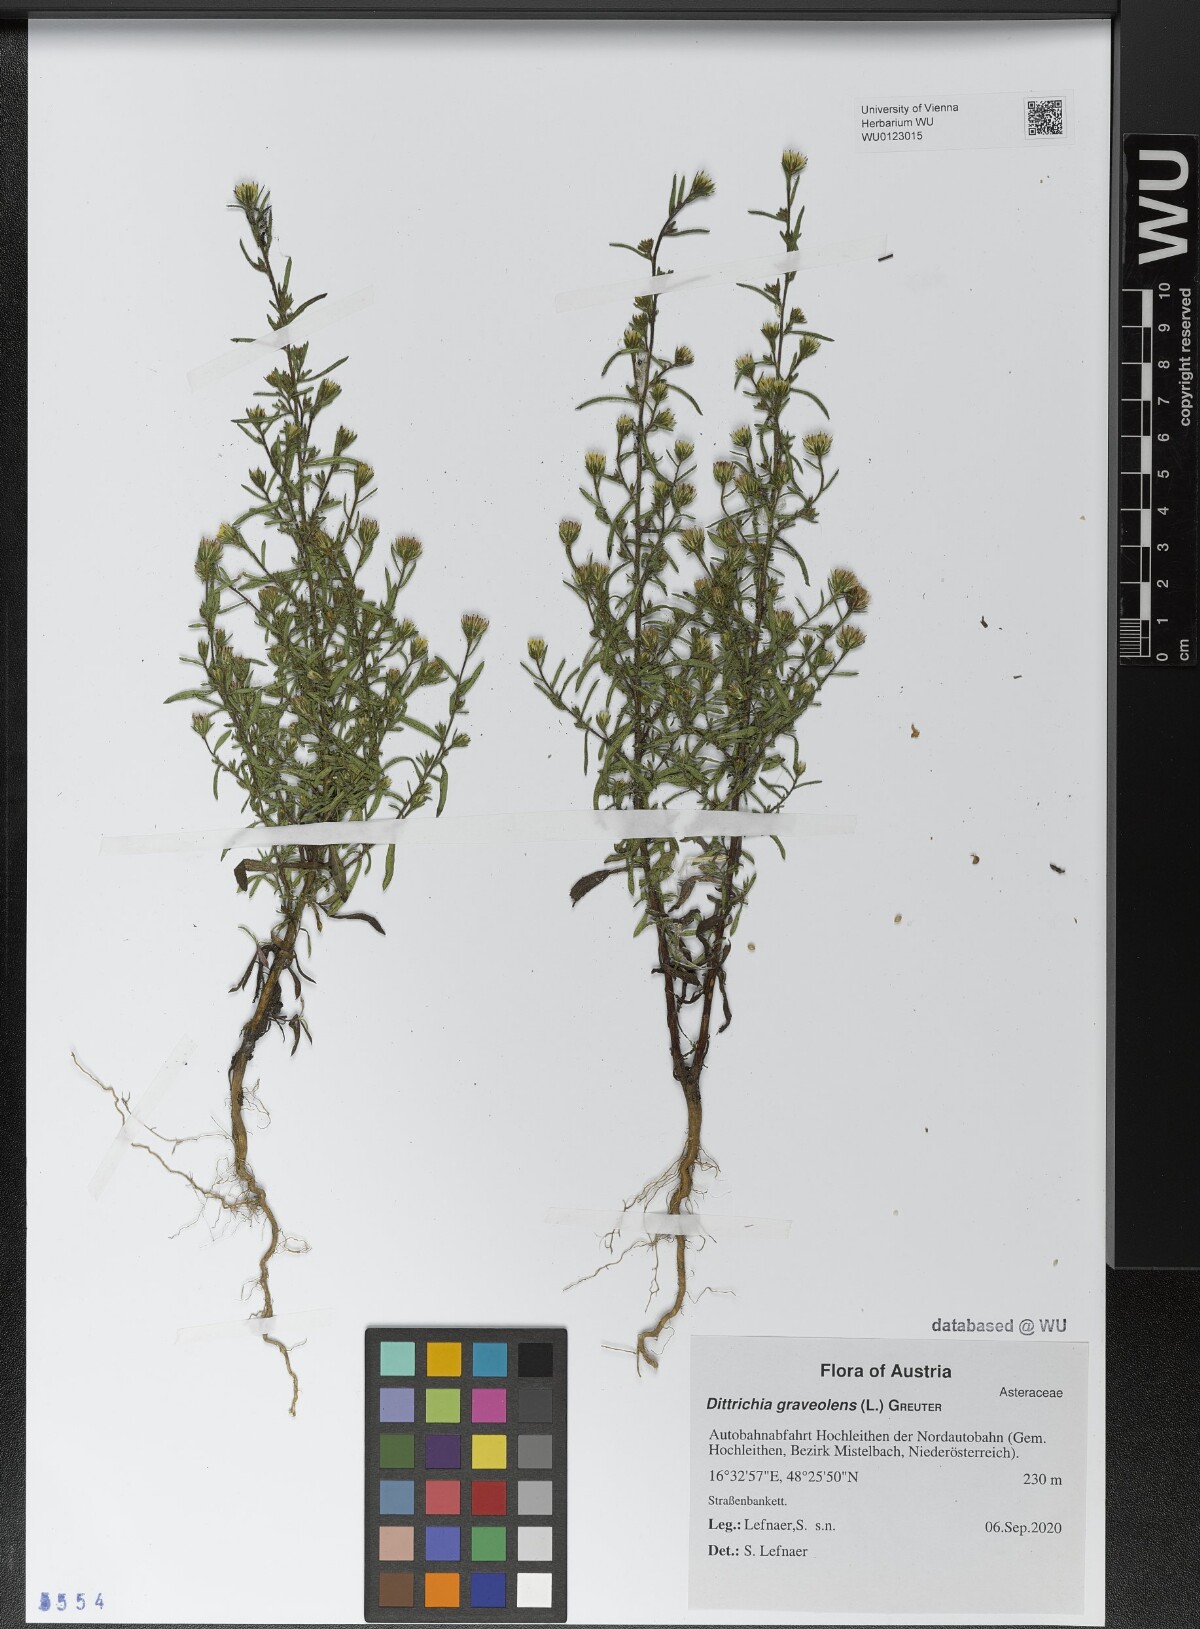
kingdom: Plantae
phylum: Tracheophyta
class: Magnoliopsida
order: Asterales
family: Asteraceae
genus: Dittrichia
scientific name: Dittrichia graveolens
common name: Stinking fleabane
